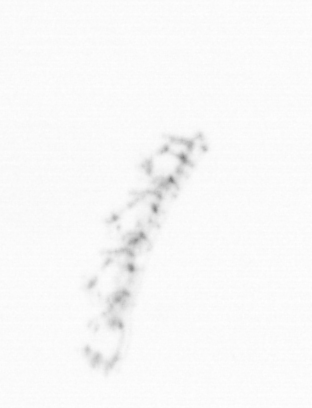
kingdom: Chromista
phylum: Ochrophyta
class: Bacillariophyceae
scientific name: Bacillariophyceae
